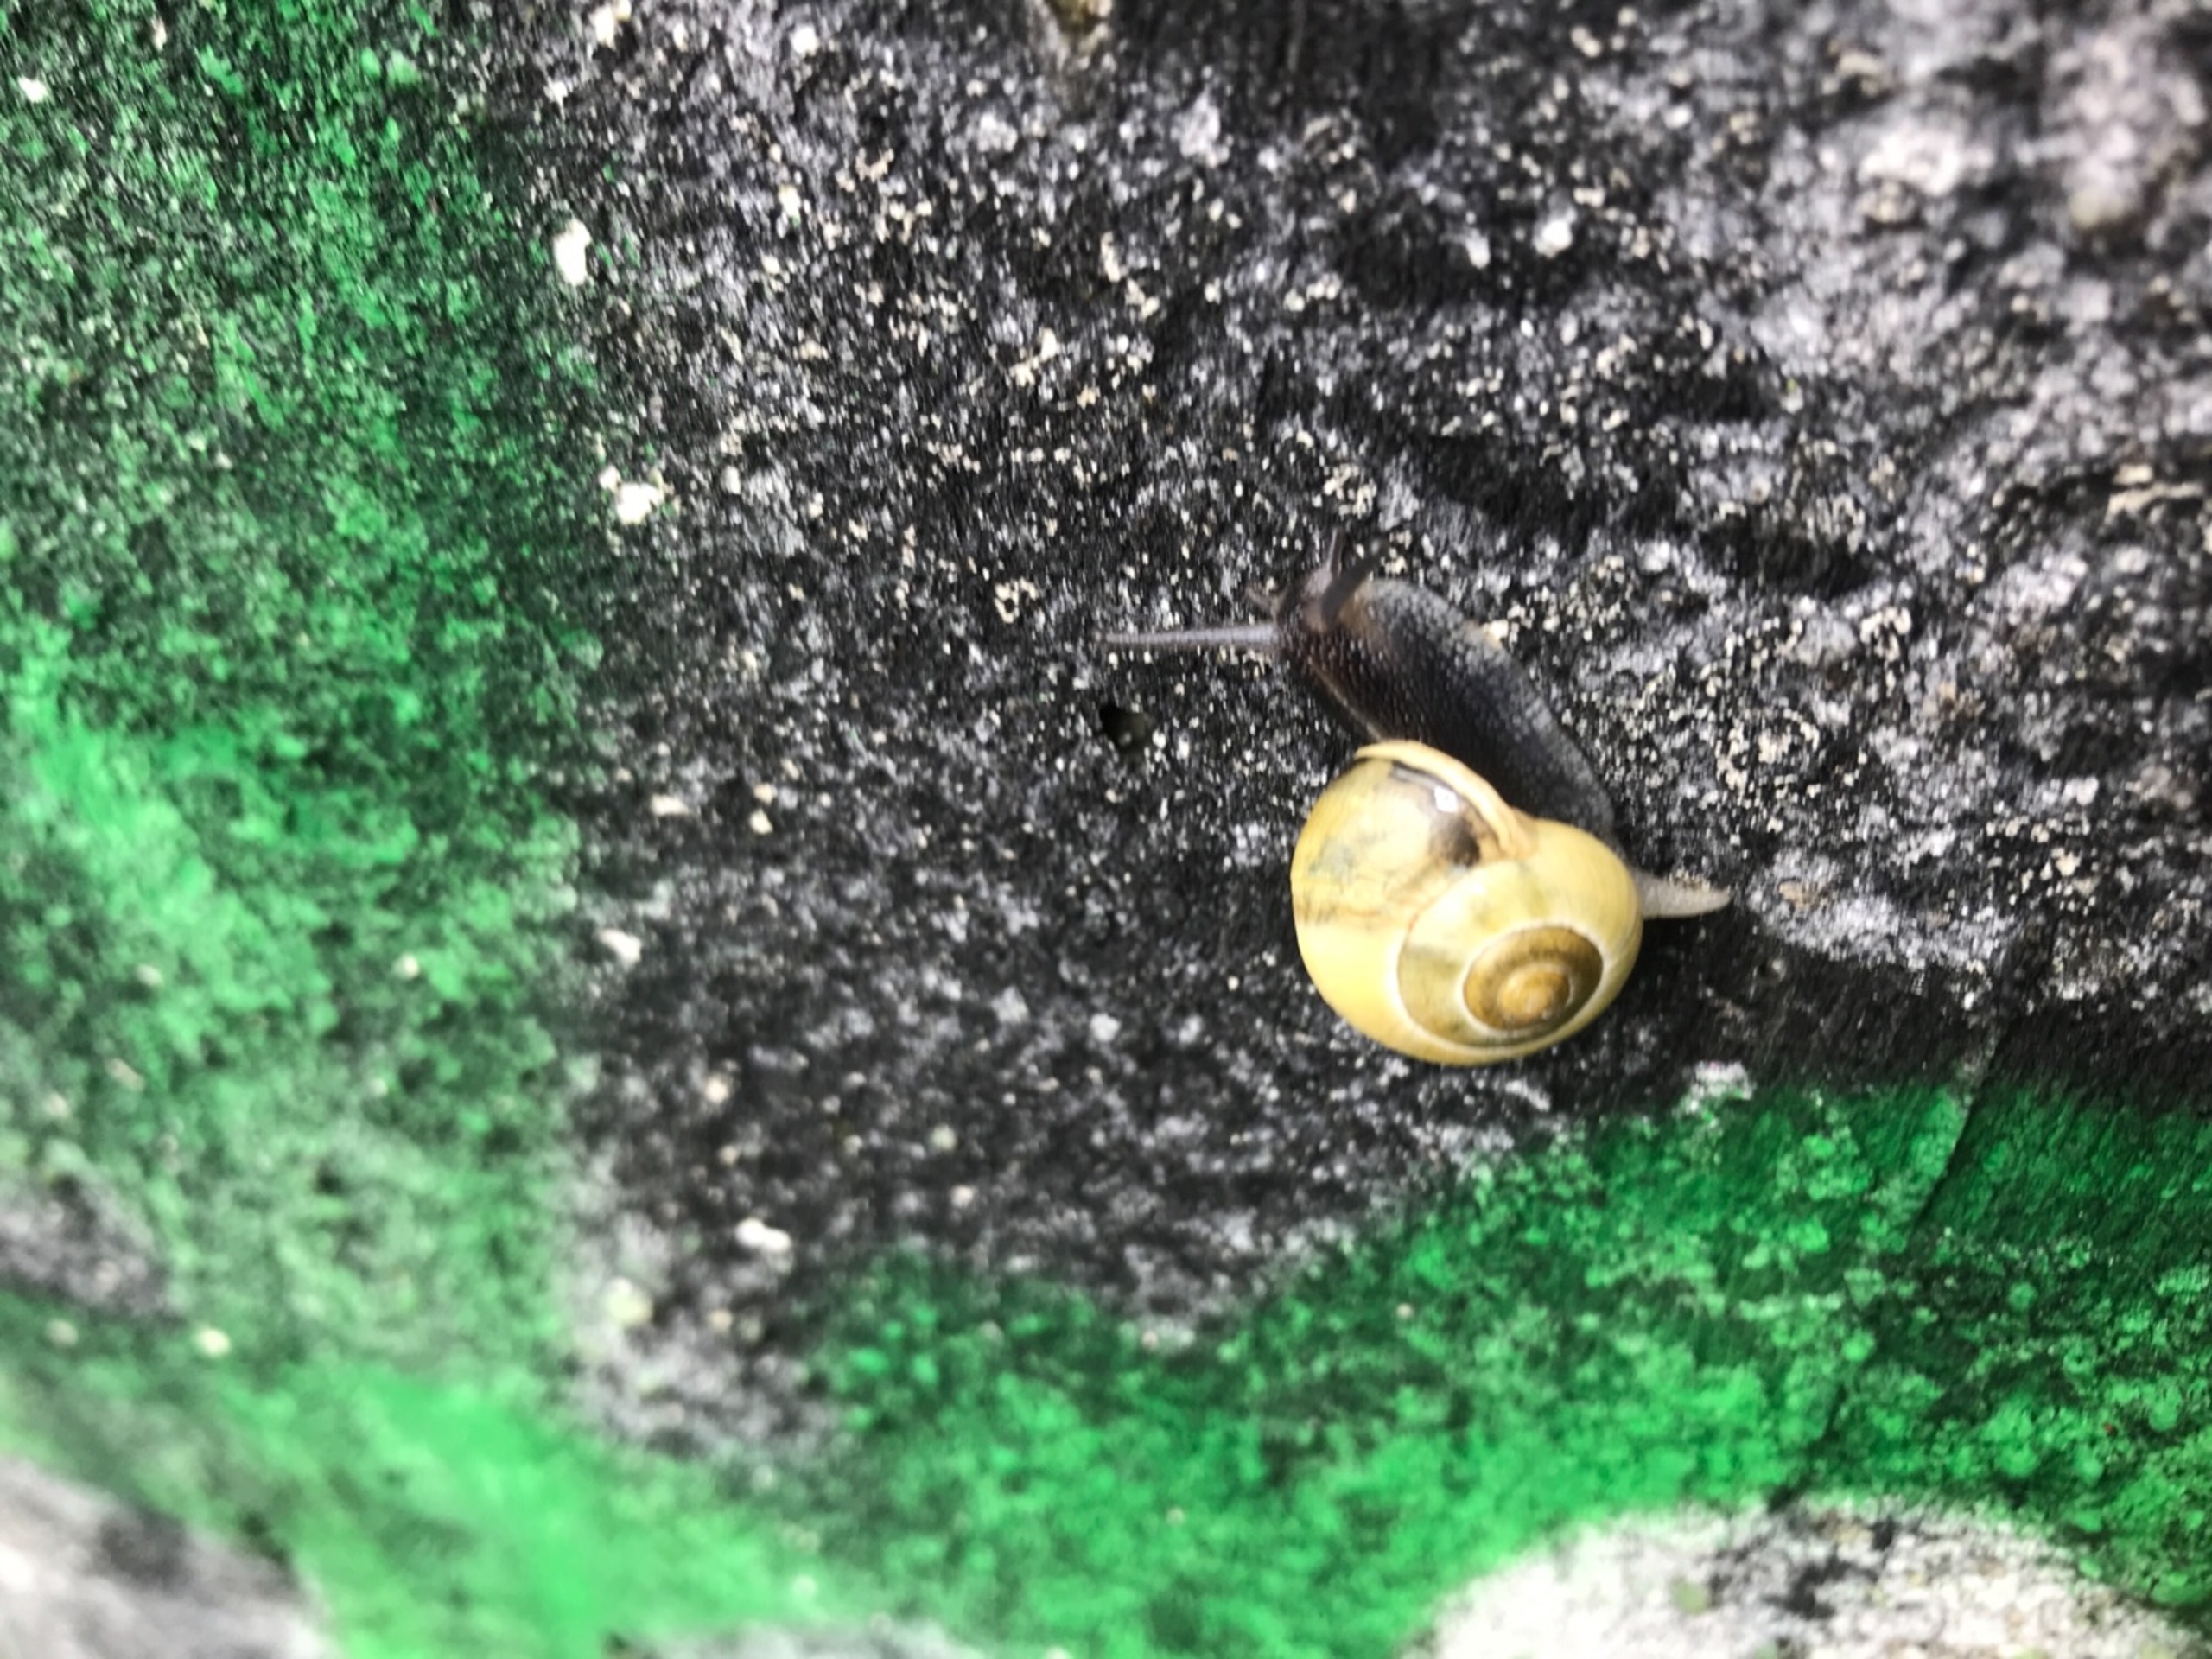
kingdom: Animalia
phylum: Mollusca
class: Gastropoda
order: Stylommatophora
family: Helicidae
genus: Cepaea
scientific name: Cepaea hortensis
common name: Havesnegl
